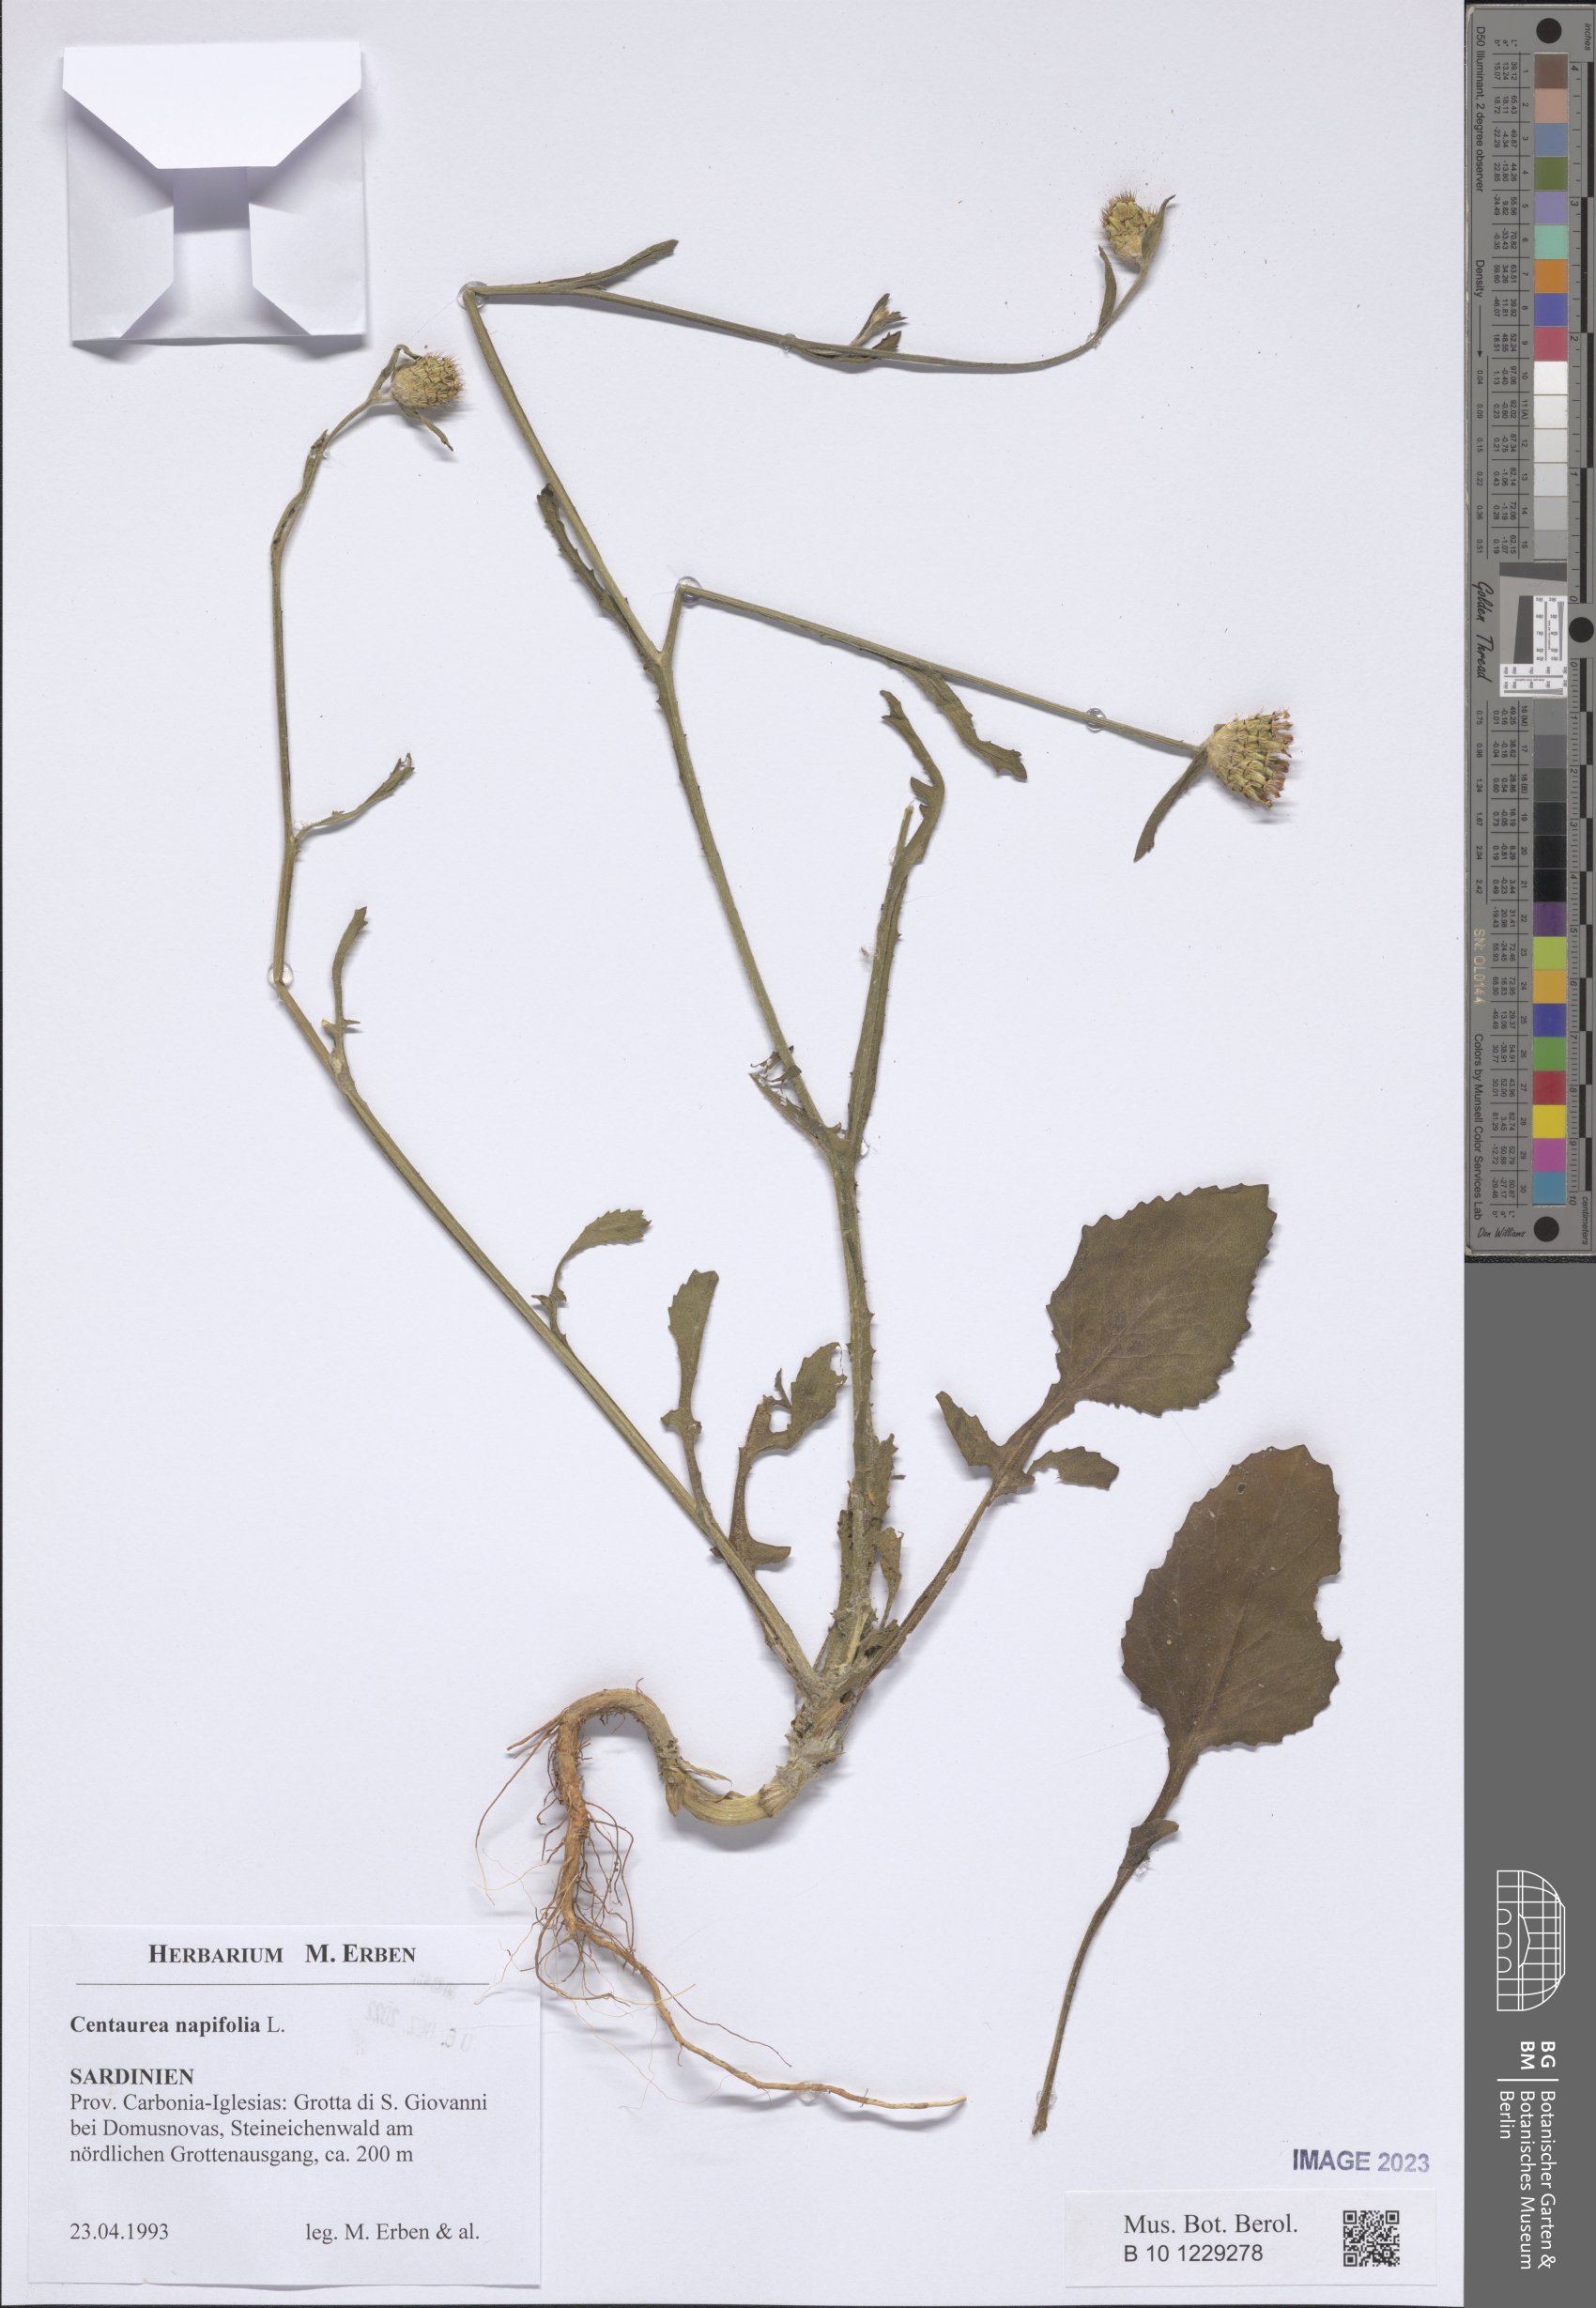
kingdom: Plantae
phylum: Tracheophyta
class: Magnoliopsida
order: Asterales
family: Asteraceae
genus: Centaurea
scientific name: Centaurea napifolia
